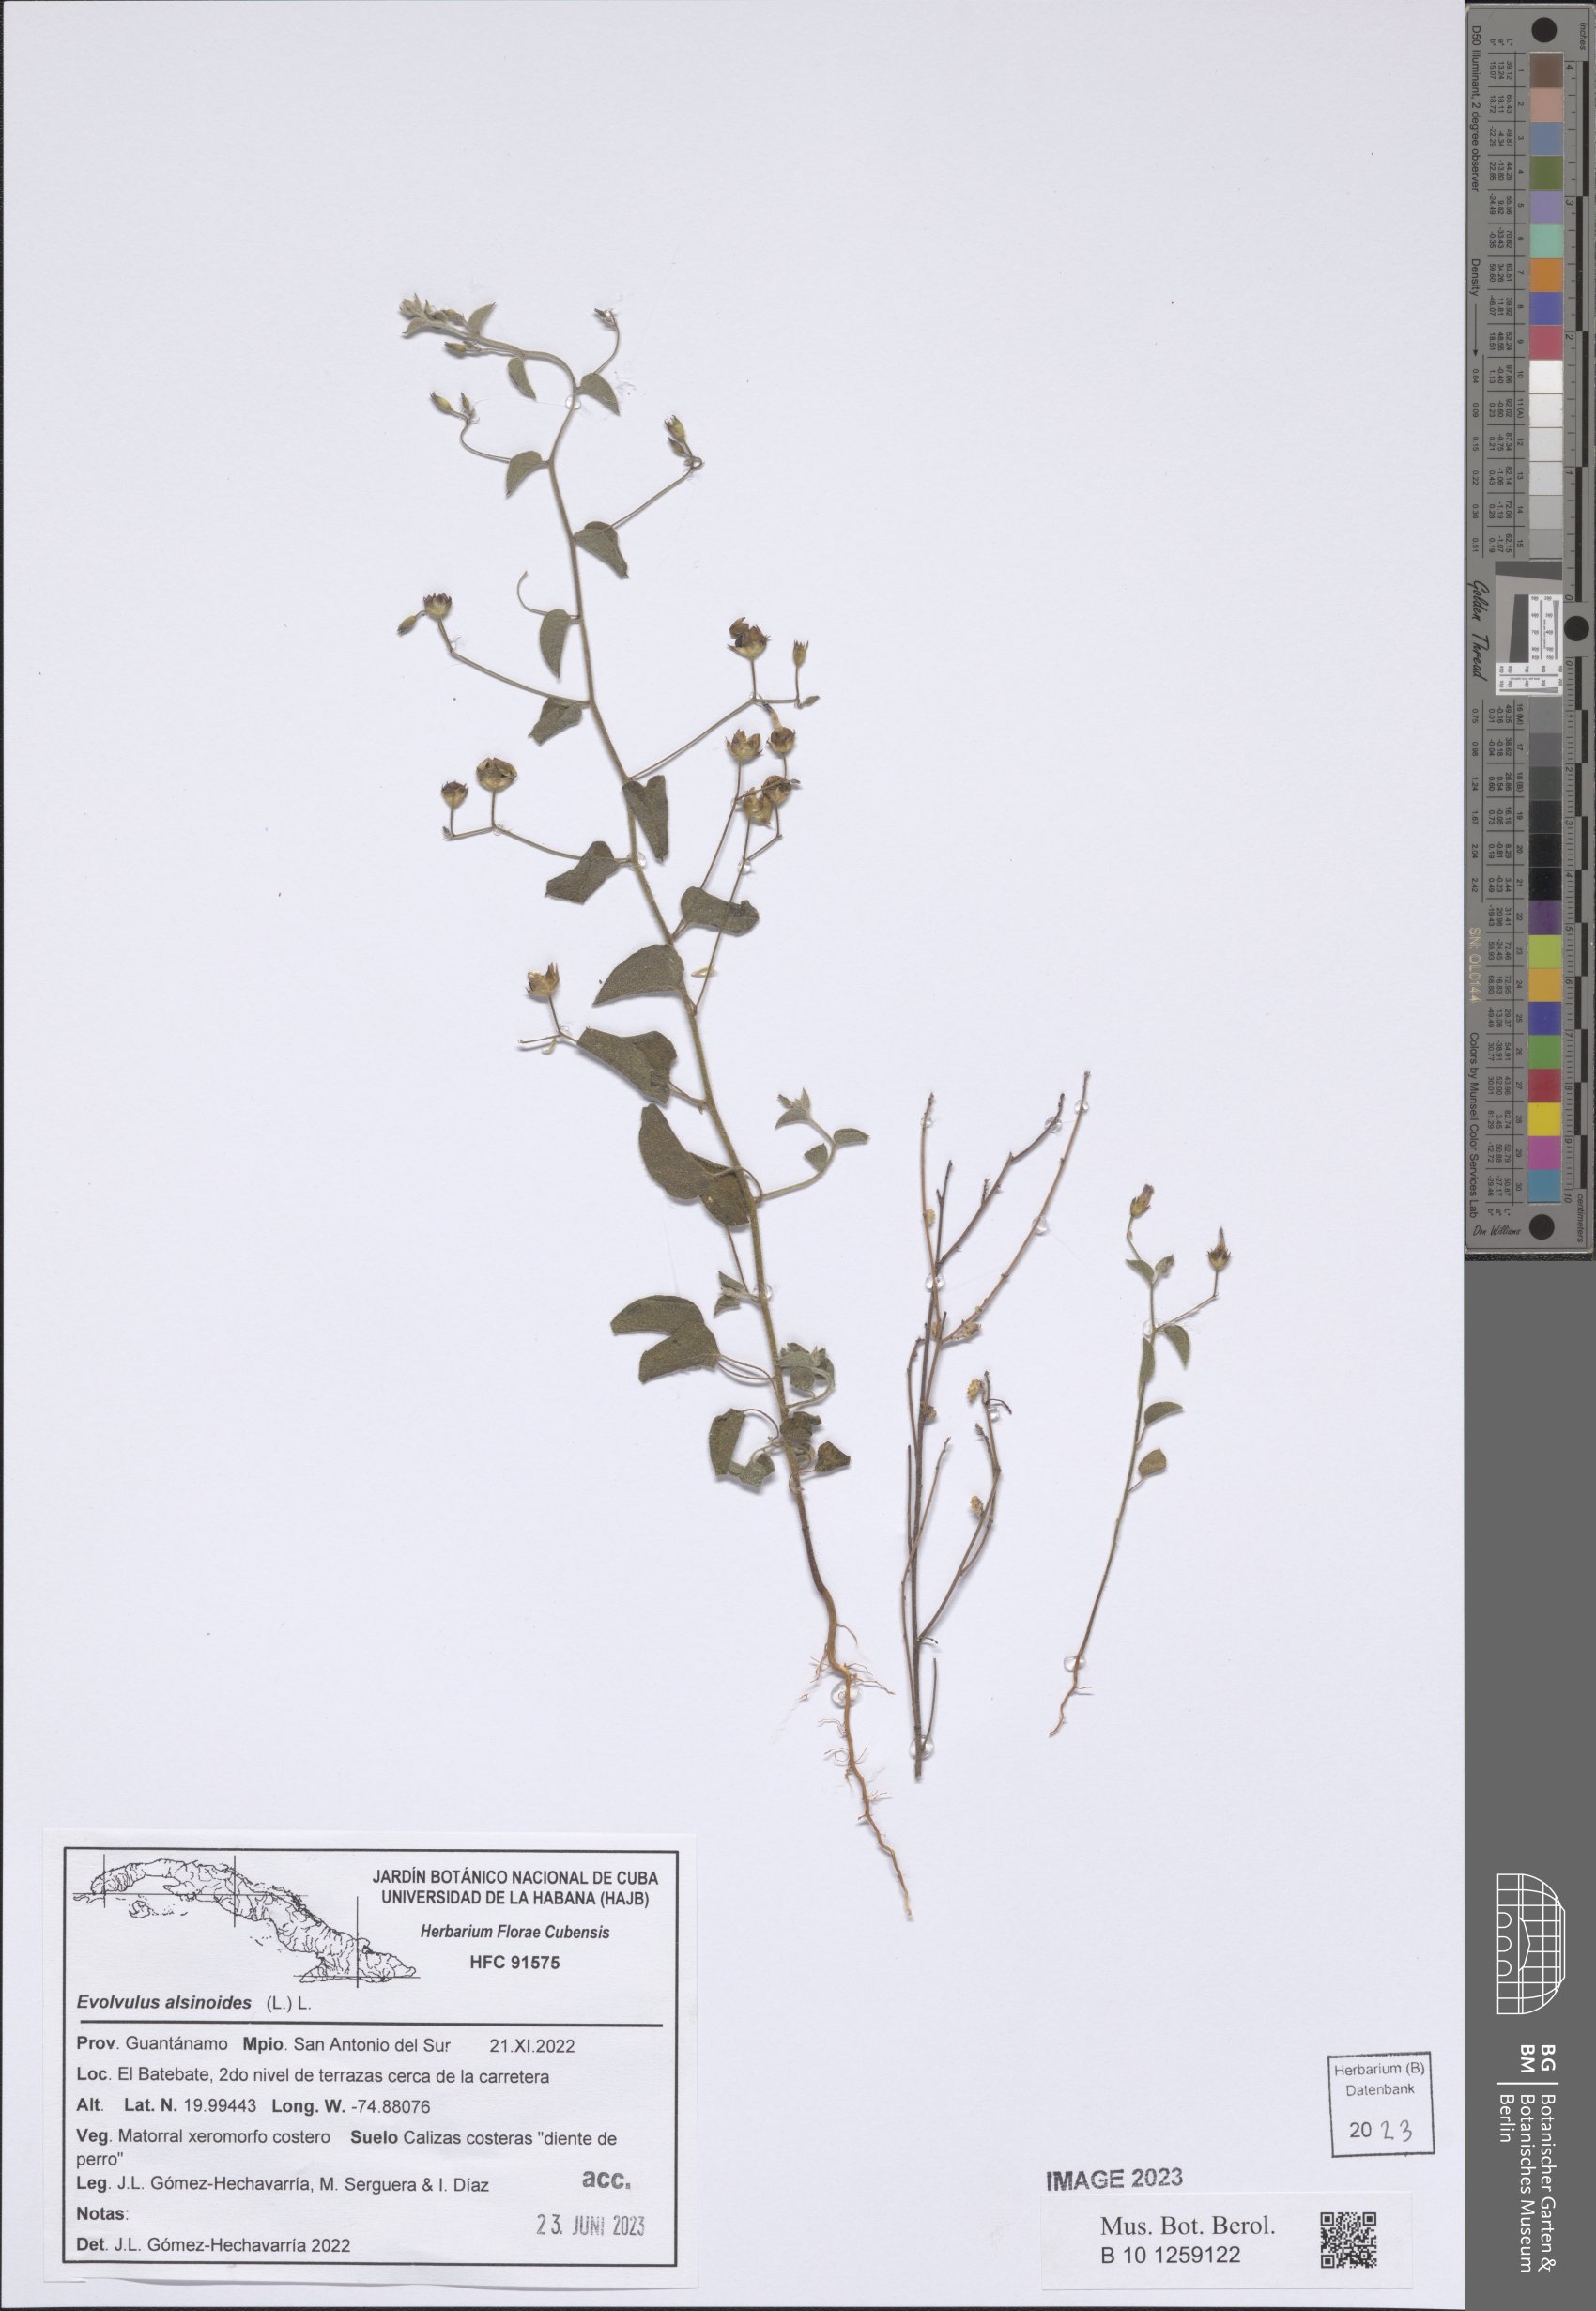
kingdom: Plantae
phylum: Tracheophyta
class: Magnoliopsida
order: Solanales
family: Convolvulaceae
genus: Evolvulus
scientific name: Evolvulus alsinoides
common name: Slender dwarf morning-glory
